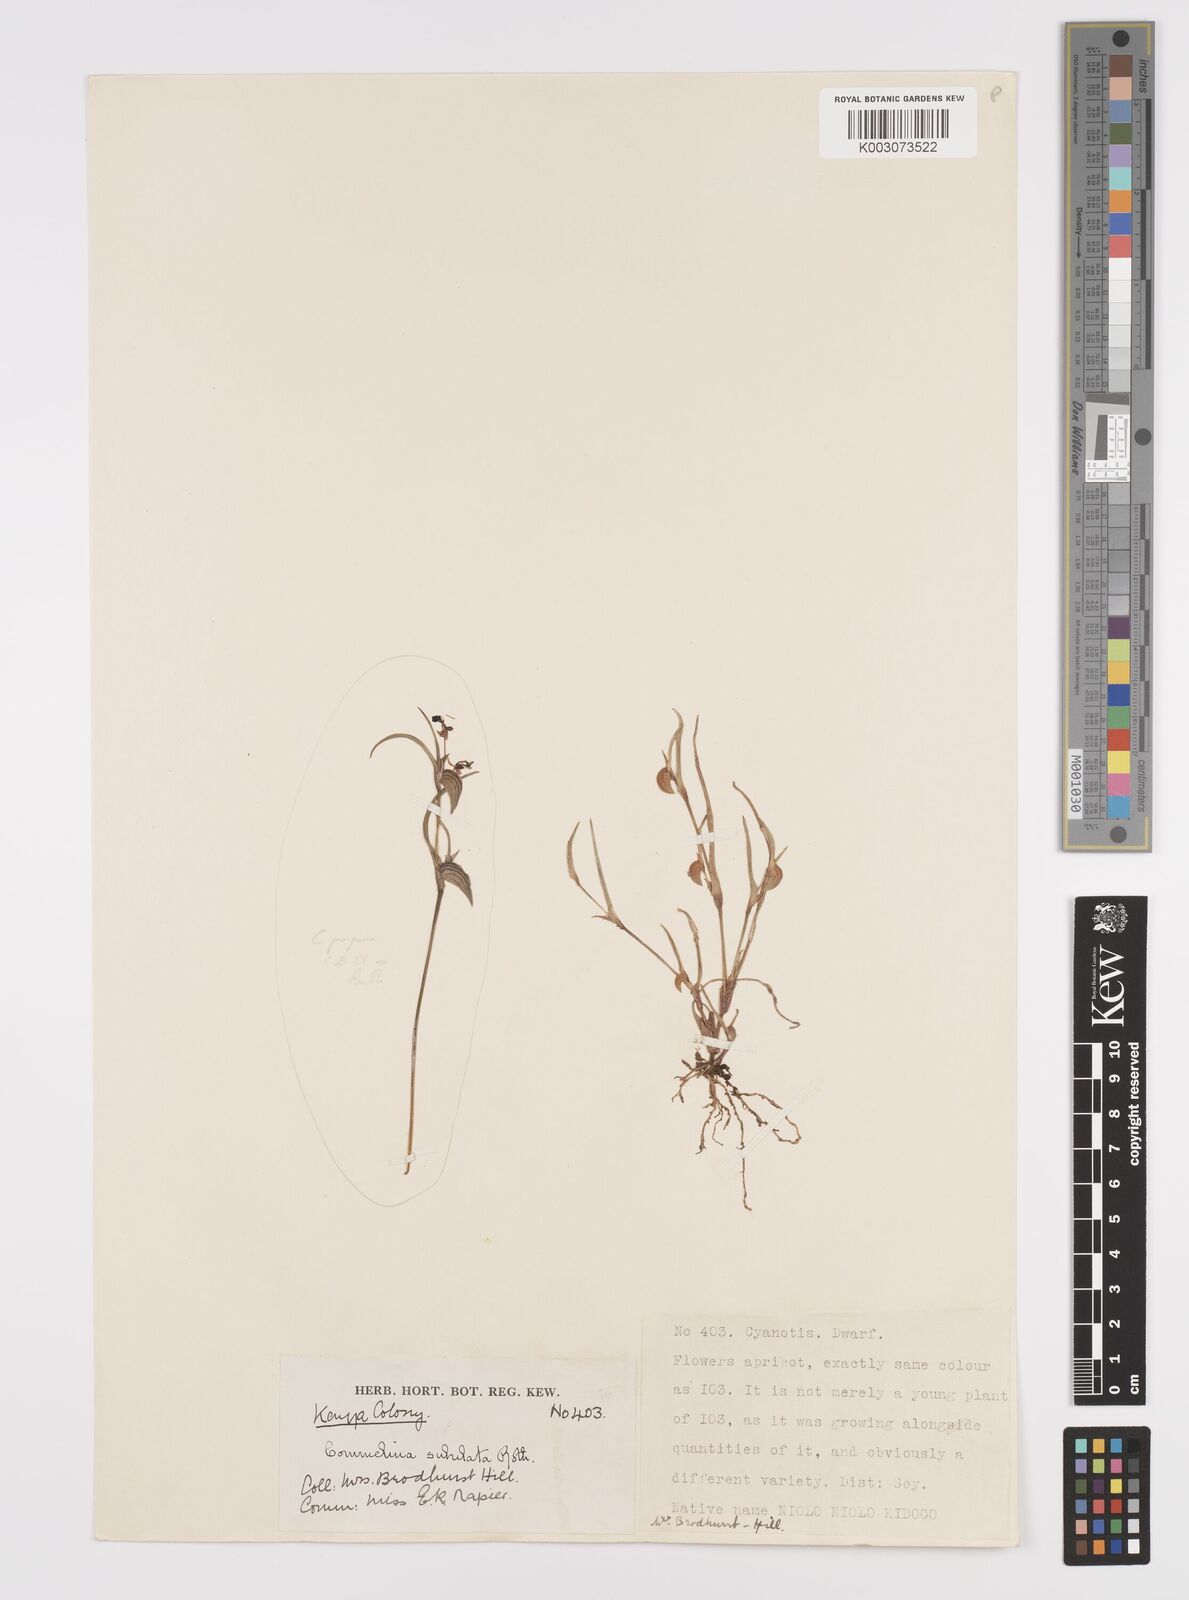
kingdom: Plantae
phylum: Tracheophyta
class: Liliopsida
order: Commelinales
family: Commelinaceae
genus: Commelina
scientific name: Commelina subulata
